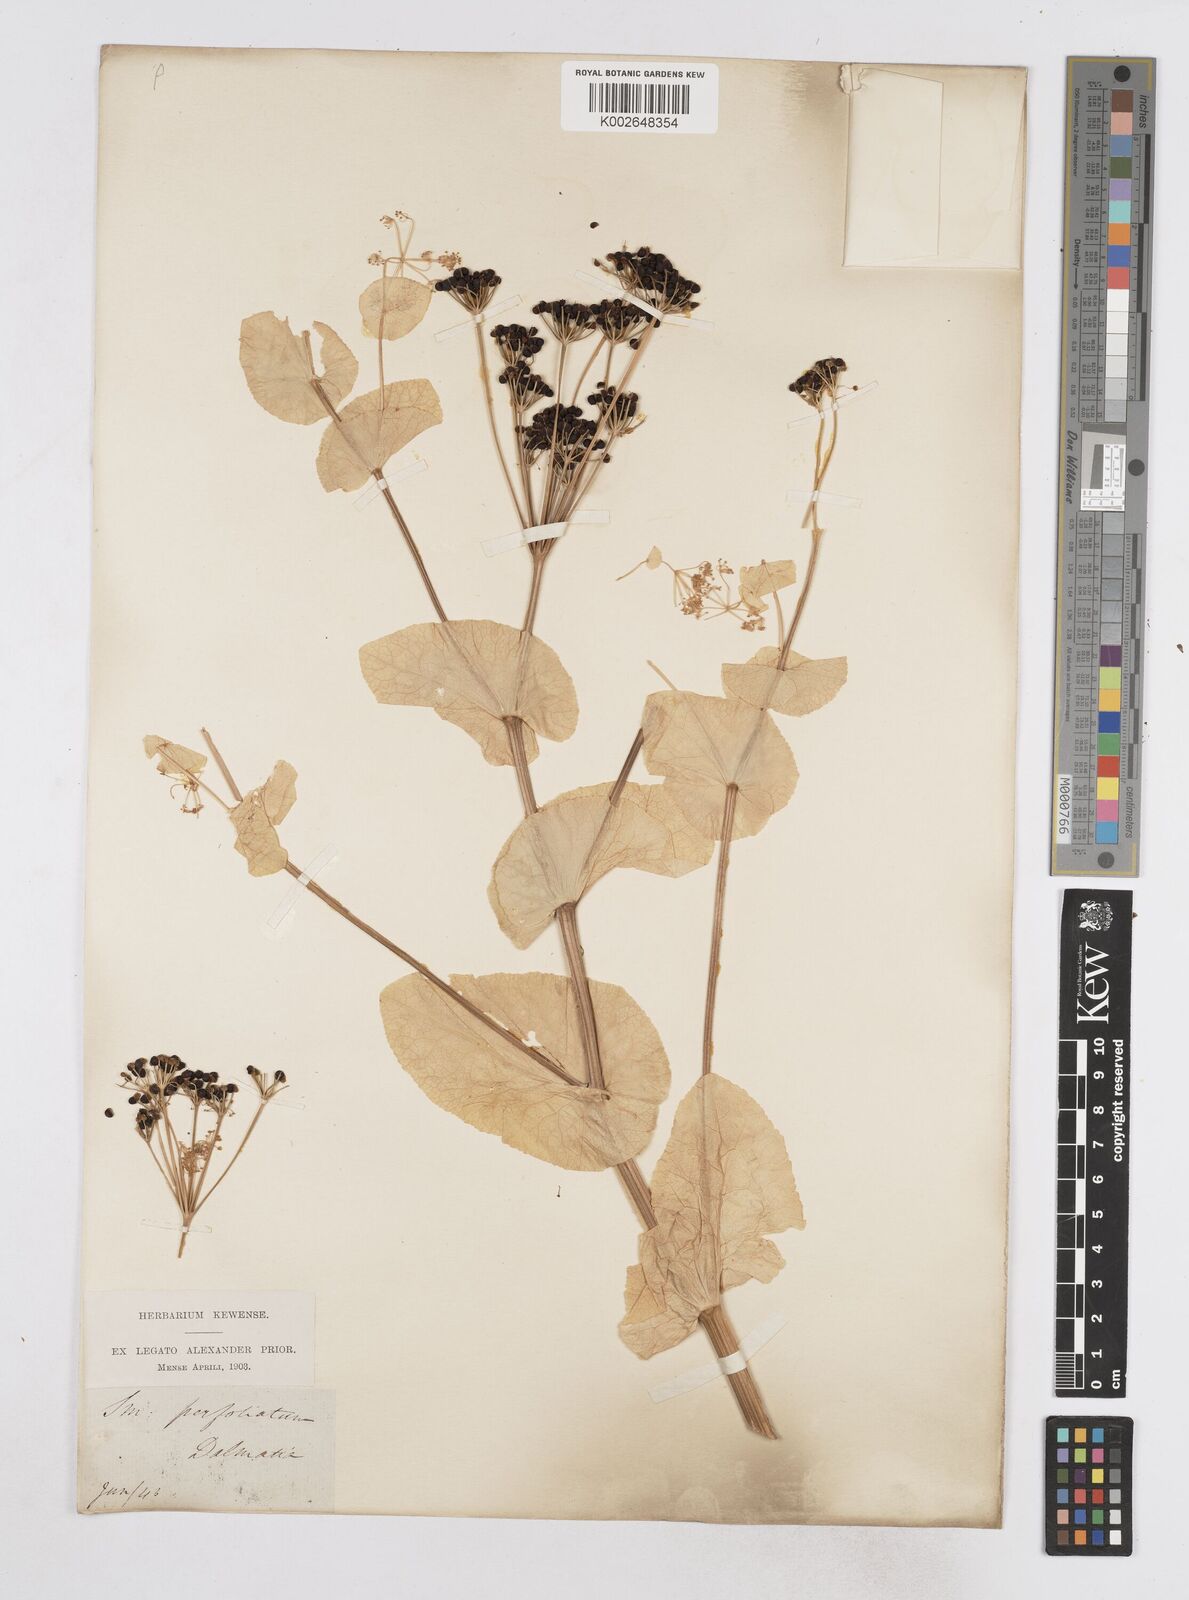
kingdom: Plantae
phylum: Tracheophyta
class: Magnoliopsida
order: Apiales
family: Apiaceae
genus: Smyrnium
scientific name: Smyrnium perfoliatum
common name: Perfoliate alexanders
